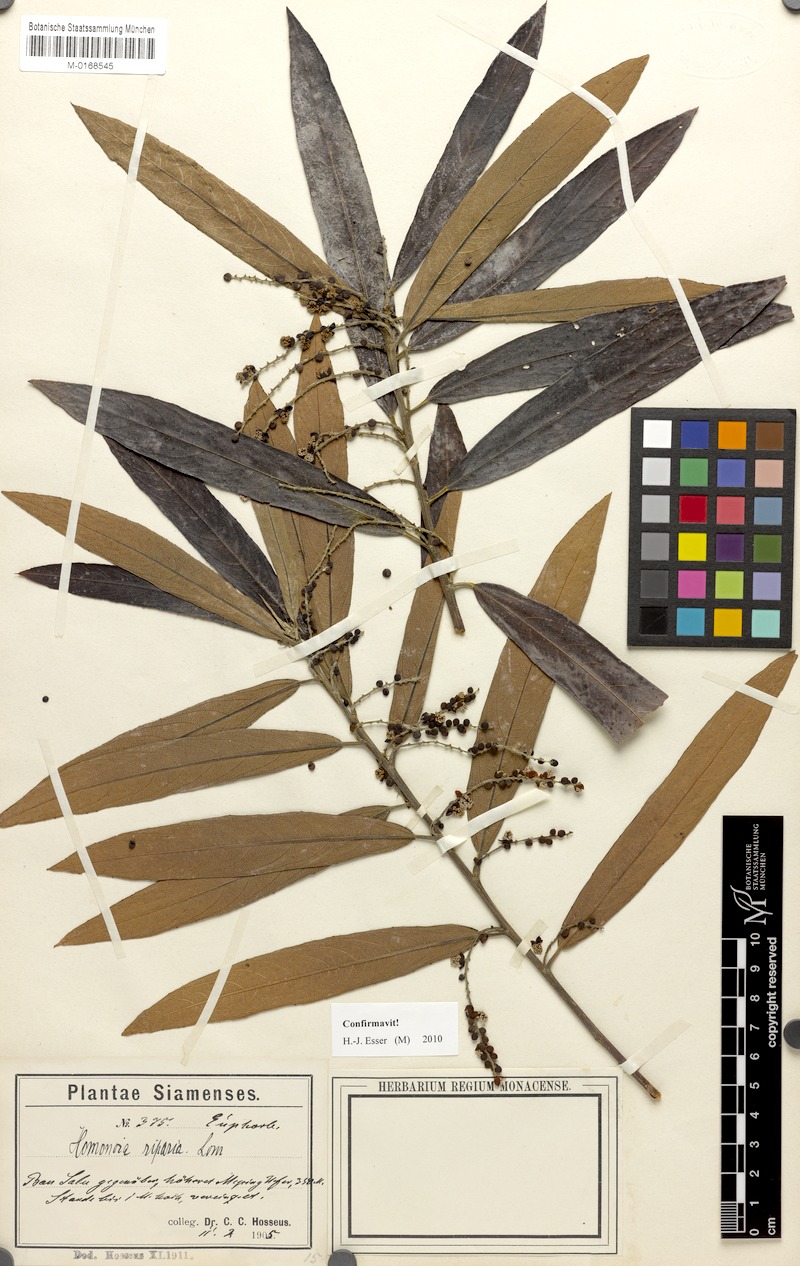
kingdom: Plantae
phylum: Tracheophyta
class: Magnoliopsida
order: Malpighiales
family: Euphorbiaceae
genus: Homonoia
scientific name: Homonoia riparia
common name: Willow-leaved water croton
